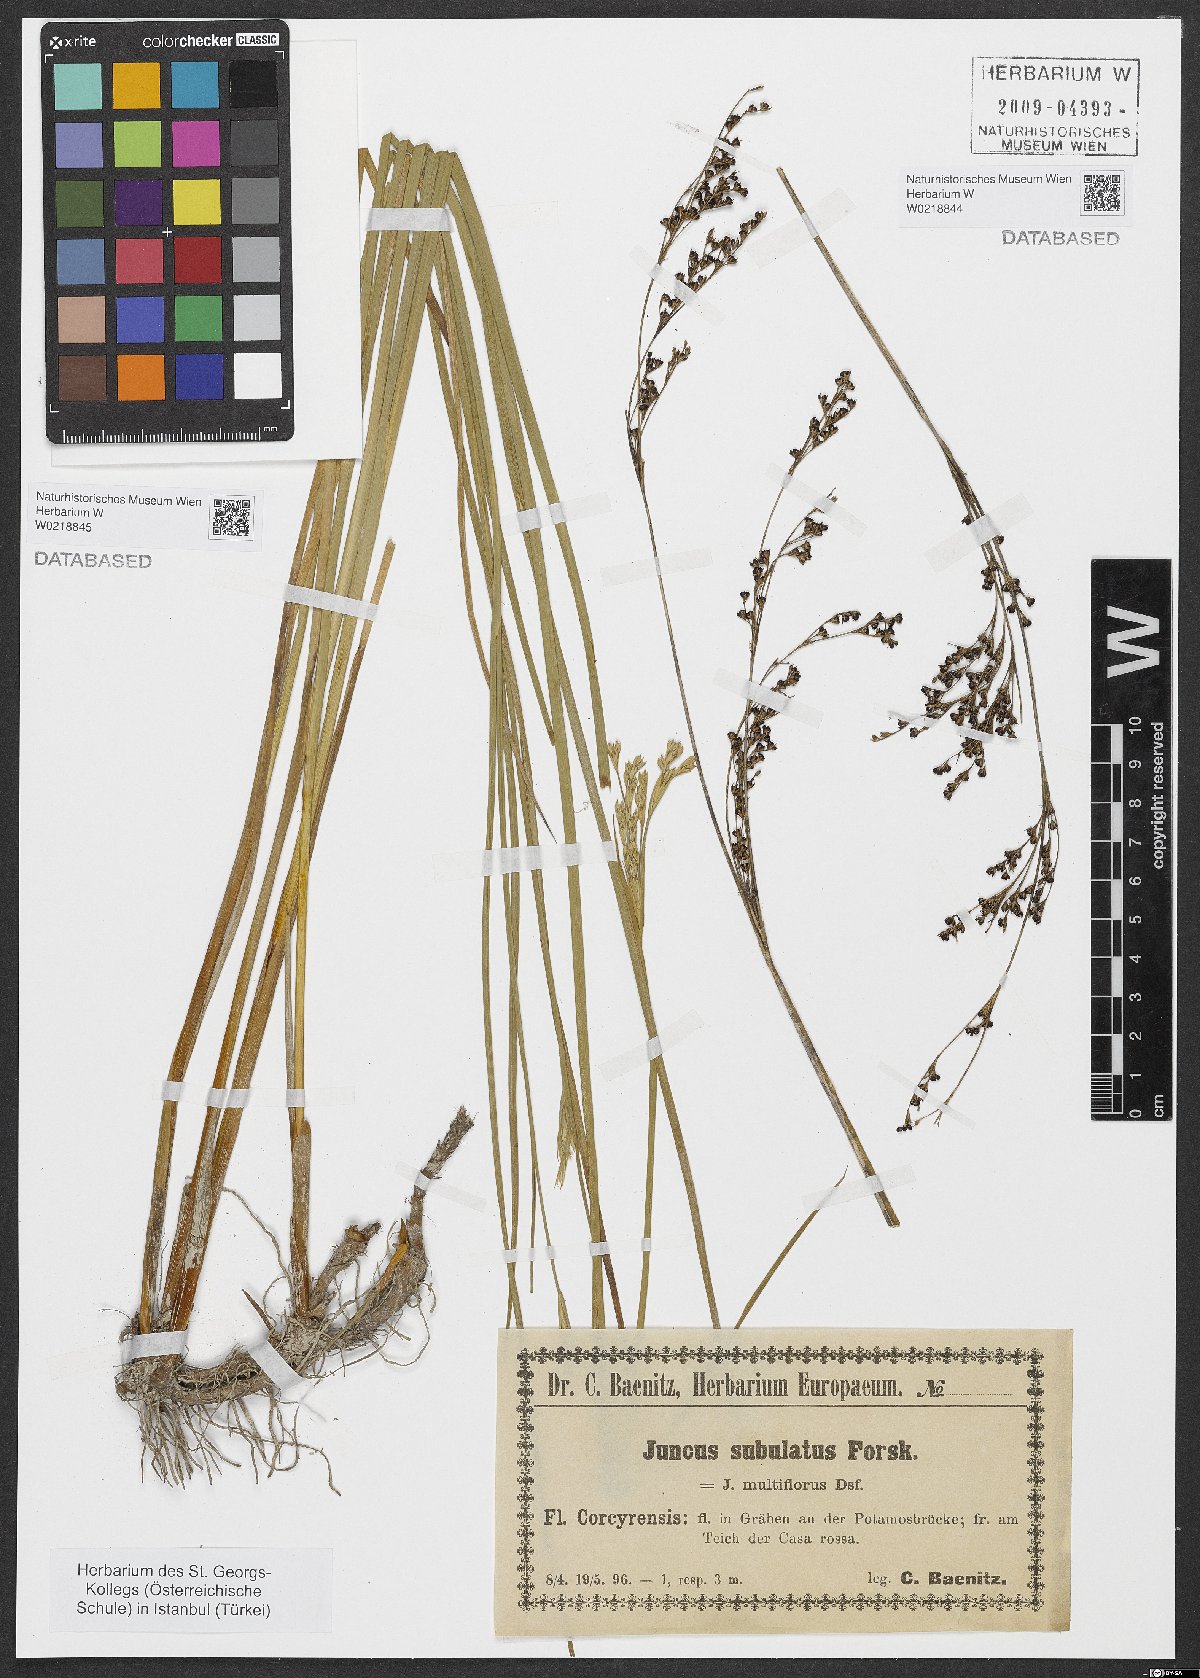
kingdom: Plantae
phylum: Tracheophyta
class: Liliopsida
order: Poales
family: Juncaceae
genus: Juncus
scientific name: Juncus subulatus
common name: Somerset rush
